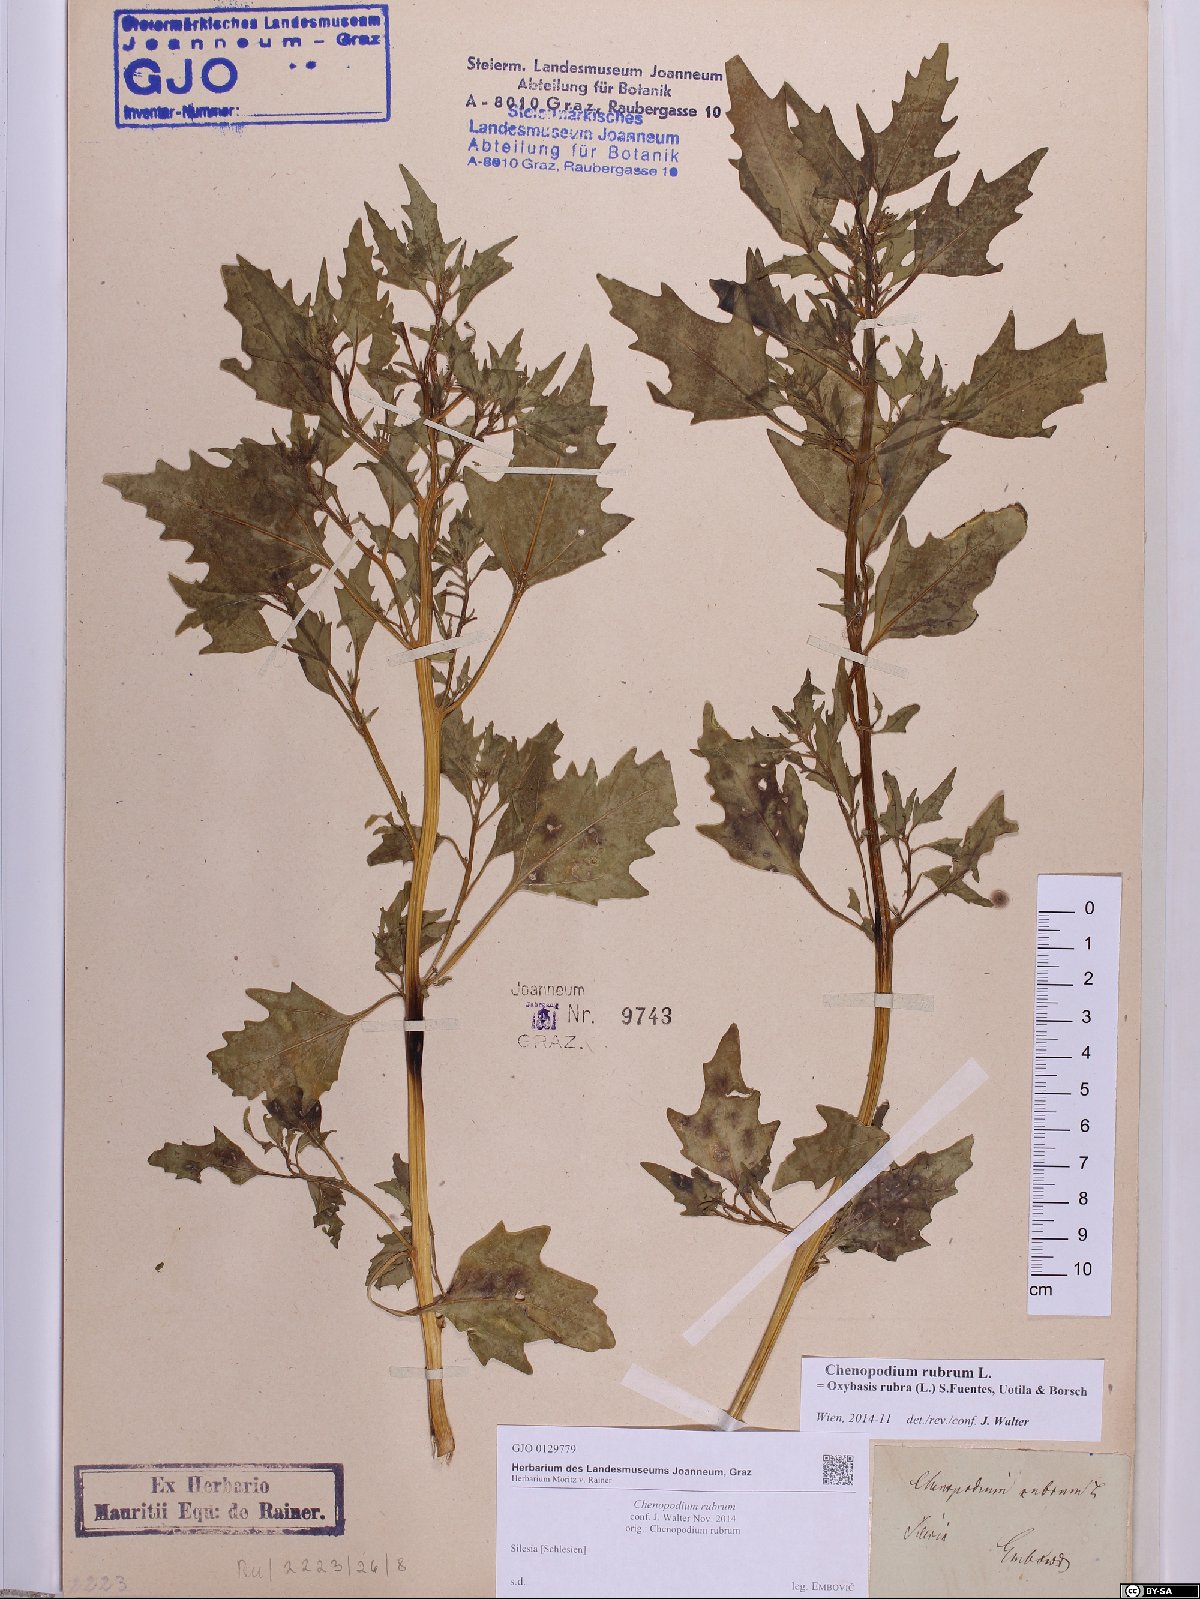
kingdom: Plantae
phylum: Tracheophyta
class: Magnoliopsida
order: Caryophyllales
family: Amaranthaceae
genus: Oxybasis
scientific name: Oxybasis rubra
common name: Red goosefoot
